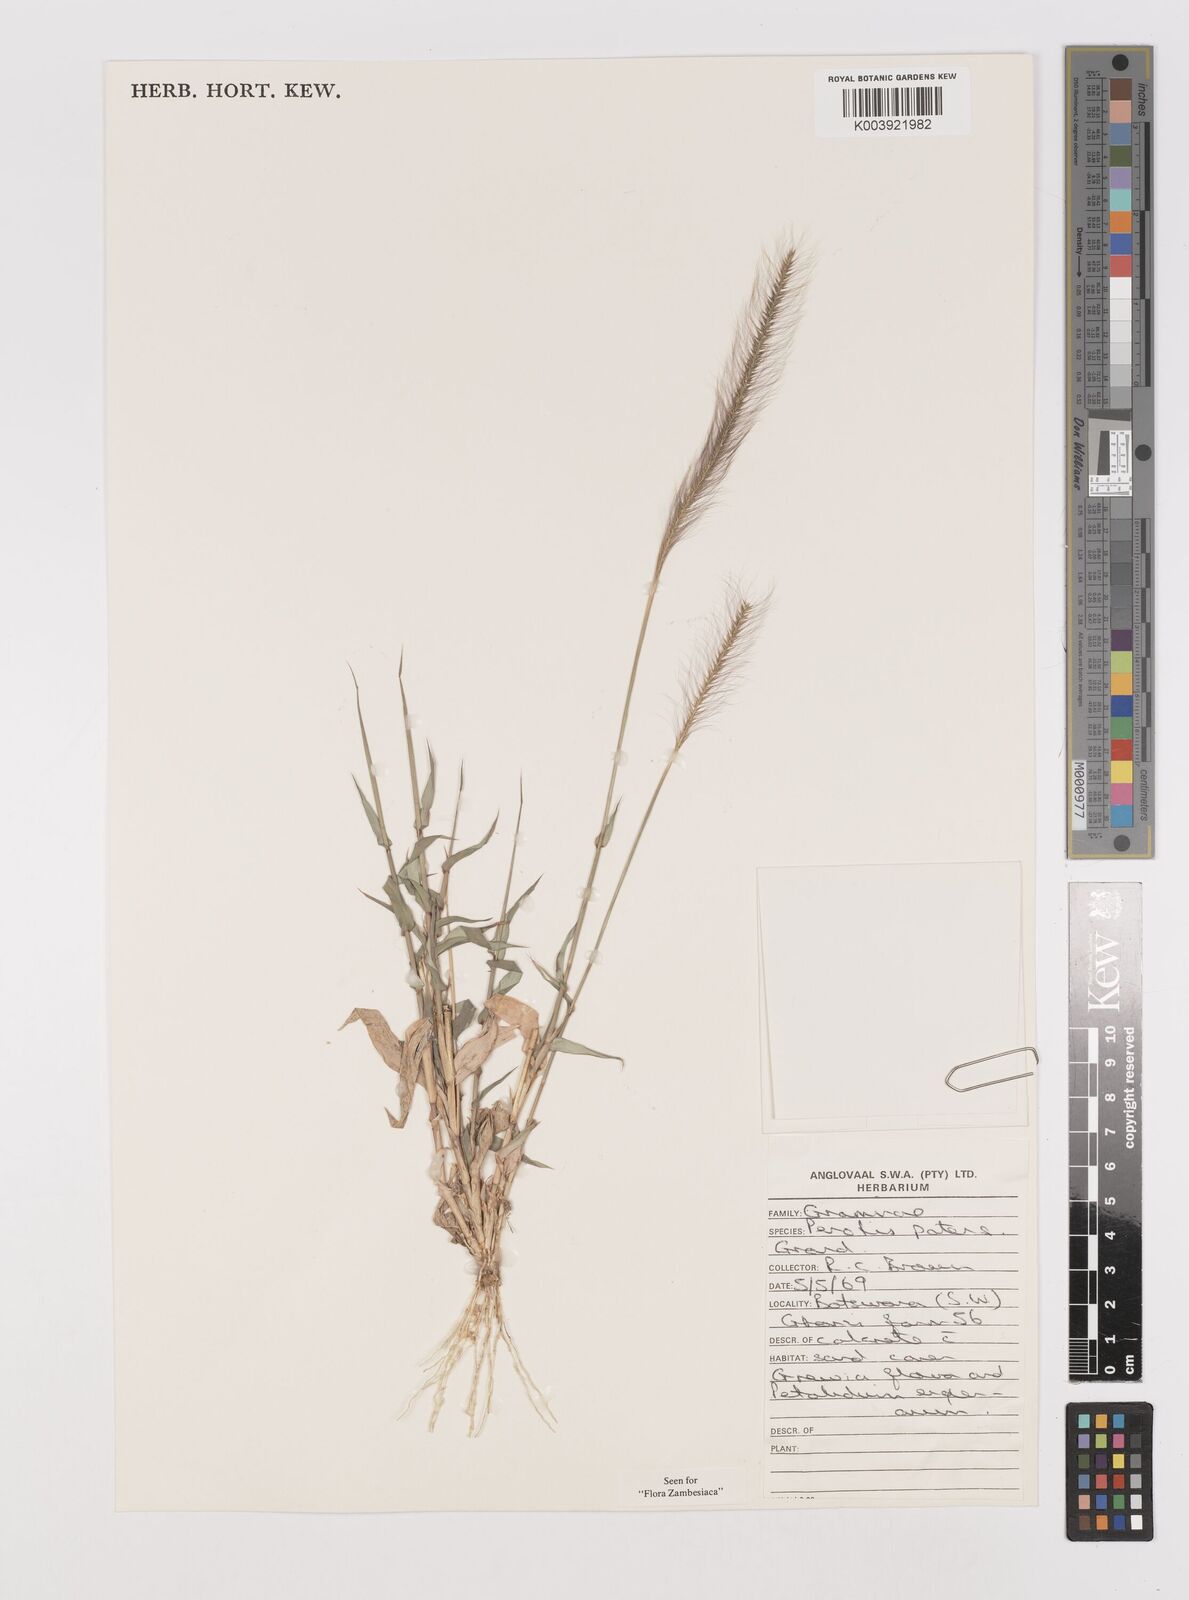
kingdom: Plantae
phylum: Tracheophyta
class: Liliopsida
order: Poales
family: Poaceae
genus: Perotis
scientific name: Perotis patens
